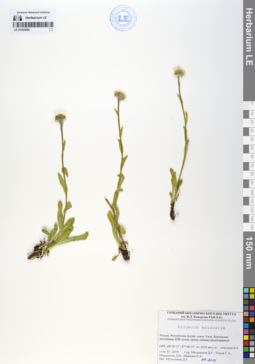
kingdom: Plantae
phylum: Tracheophyta
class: Magnoliopsida
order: Asterales
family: Asteraceae
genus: Erigeron
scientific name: Erigeron eriocalyx
